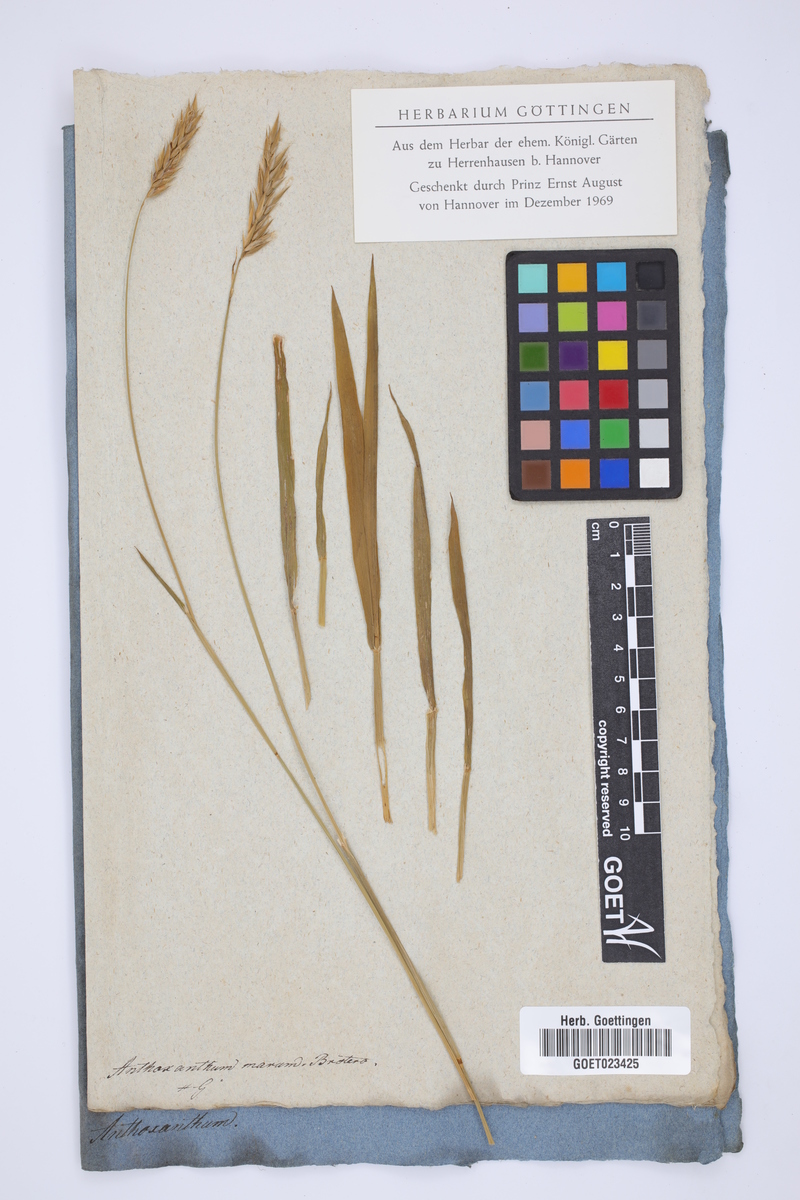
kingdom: Plantae
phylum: Tracheophyta
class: Liliopsida
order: Poales
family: Poaceae
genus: Anthoxanthum
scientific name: Anthoxanthum amarum
